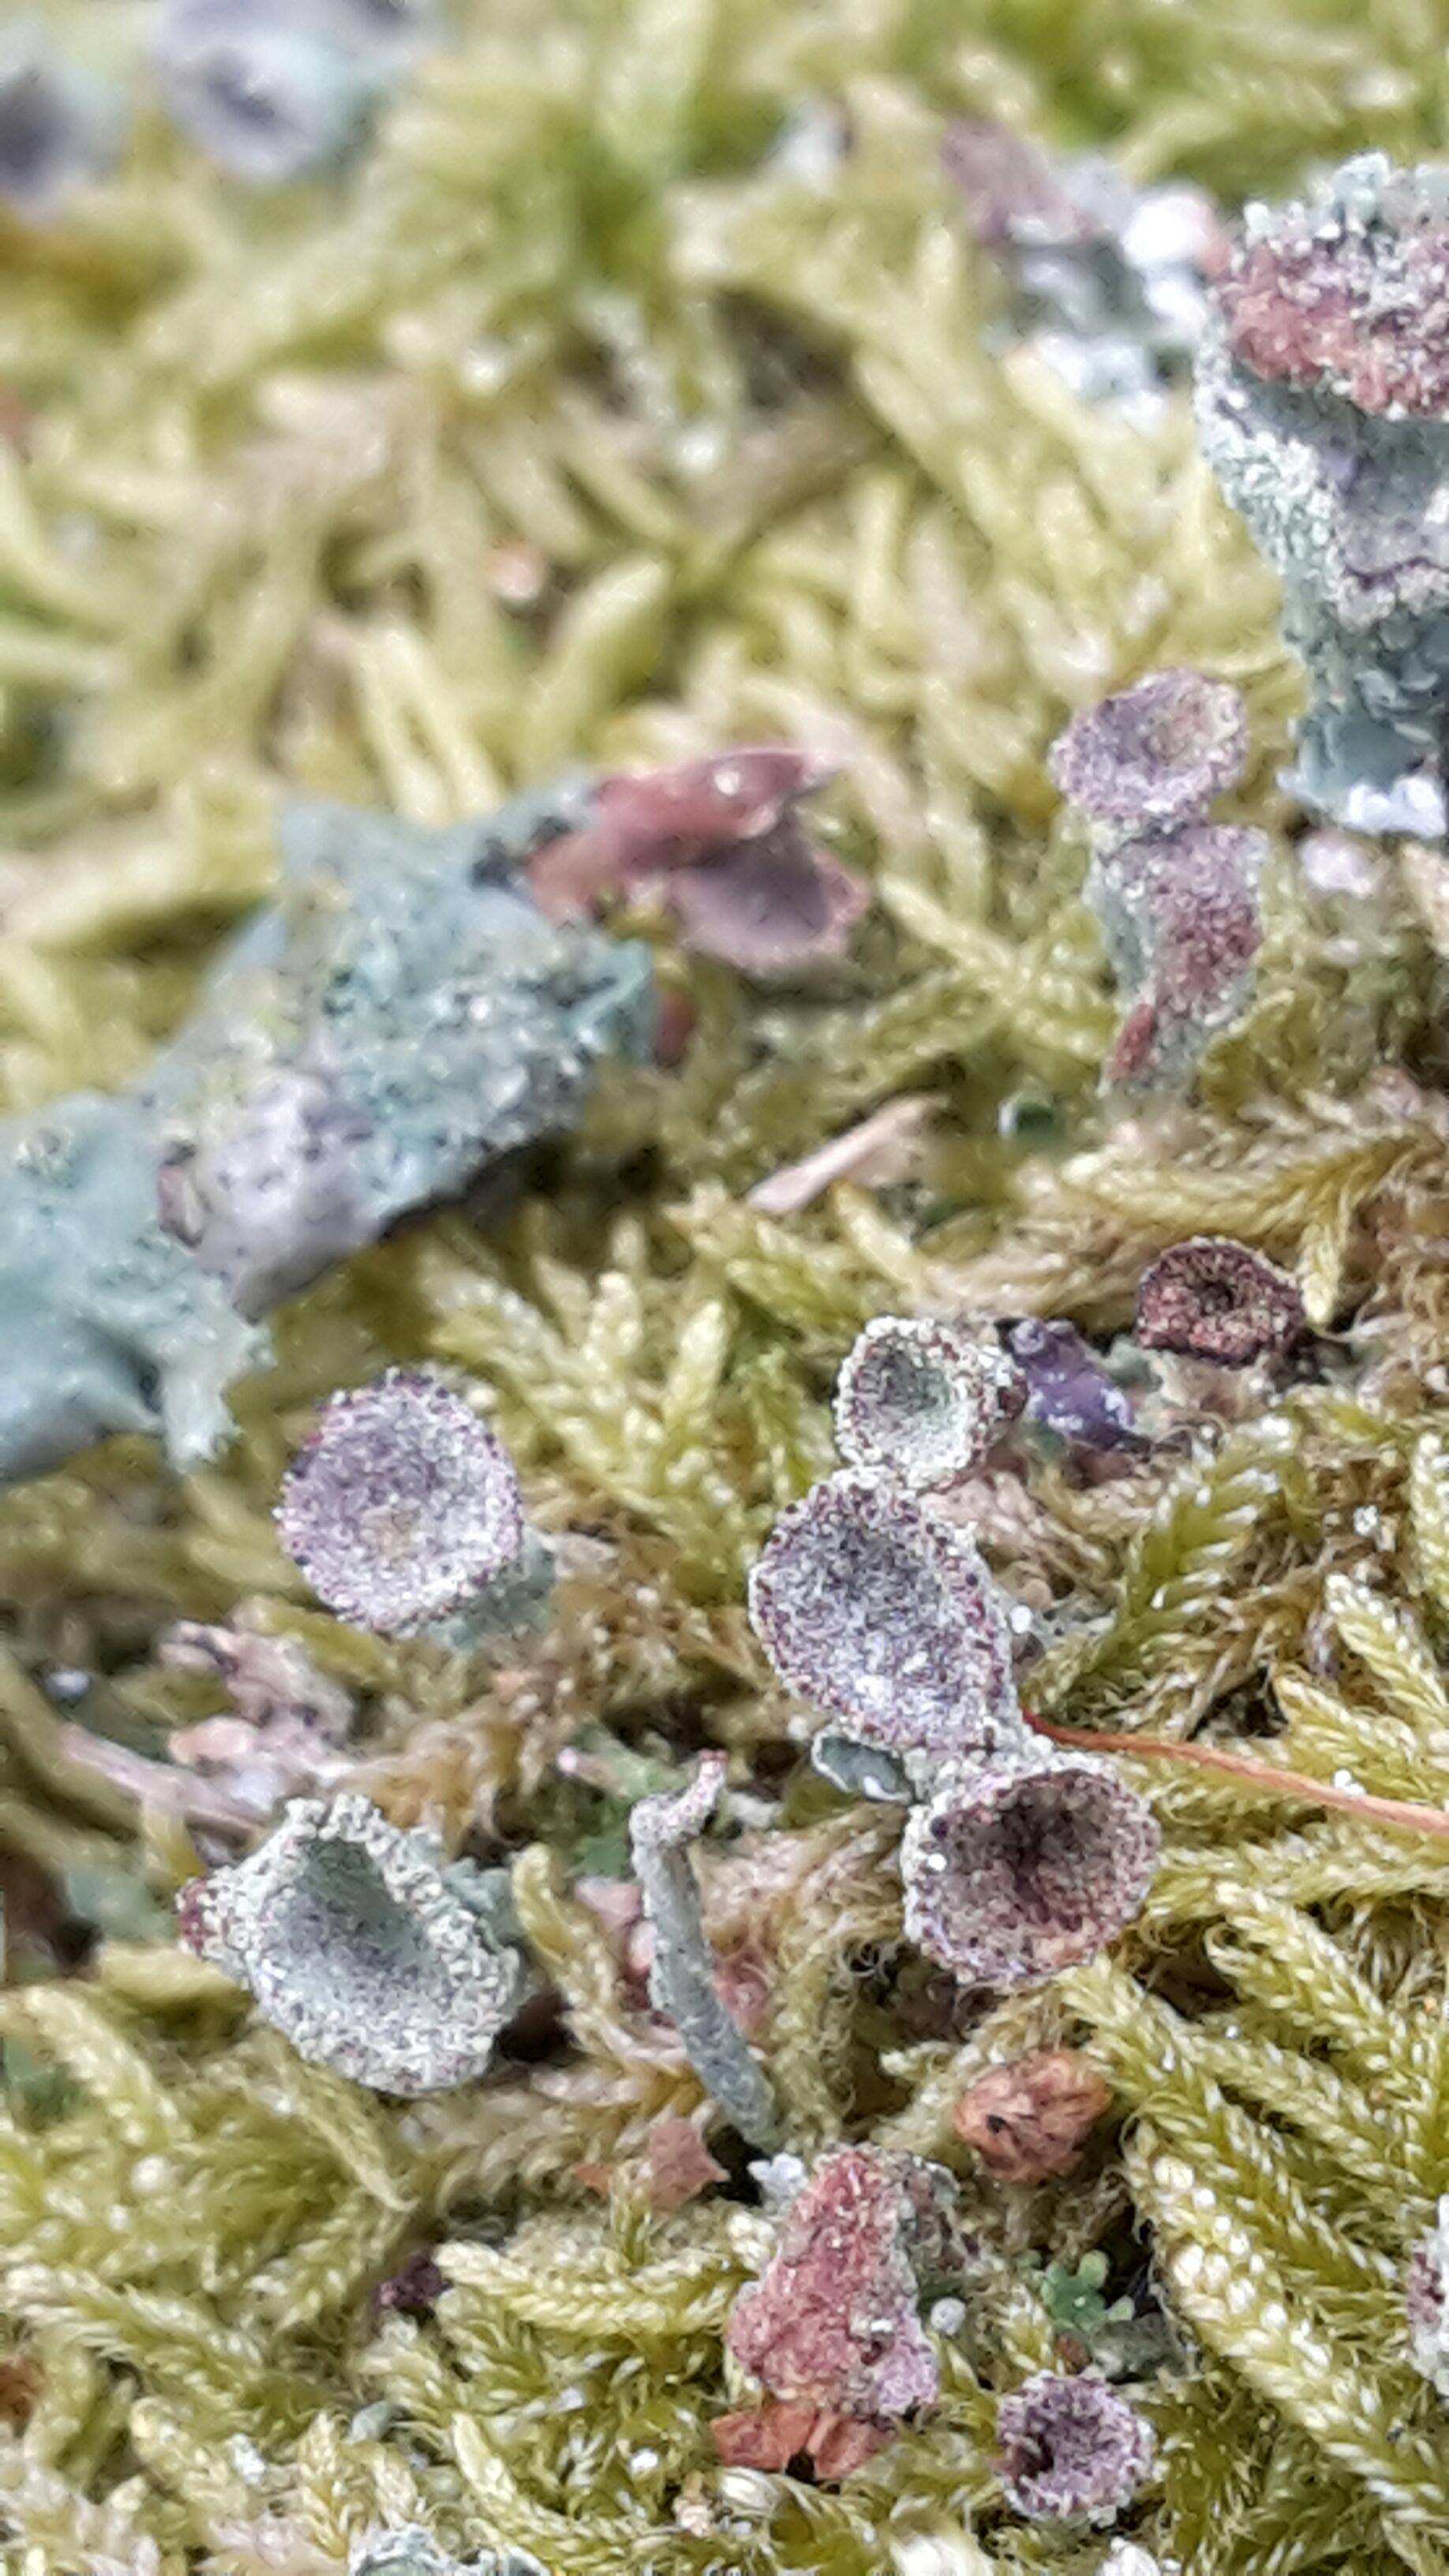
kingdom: Fungi
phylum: Ascomycota
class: Lecanoromycetes
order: Lecanorales
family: Cladoniaceae
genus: Cladonia
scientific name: Cladonia
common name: brungrøn bægerlav
